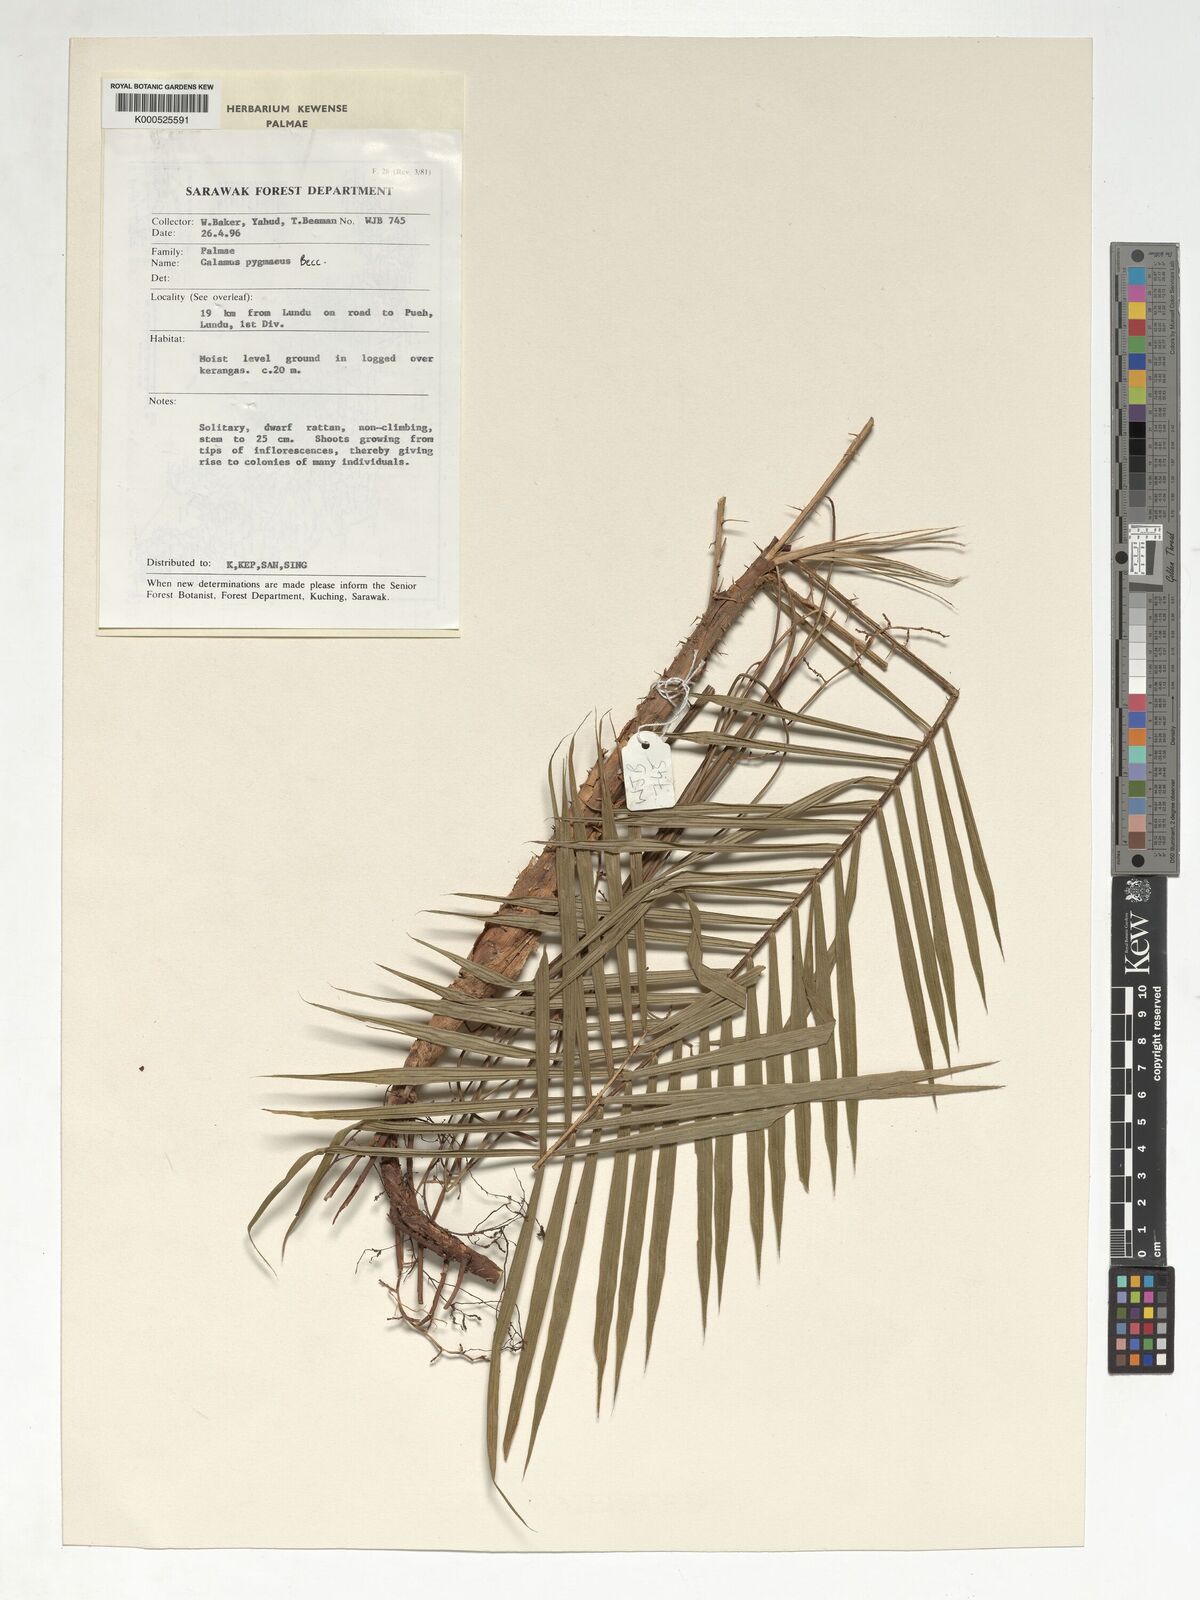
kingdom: Plantae
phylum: Tracheophyta
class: Liliopsida
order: Arecales
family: Arecaceae
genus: Calamus
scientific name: Calamus pygmaeus
